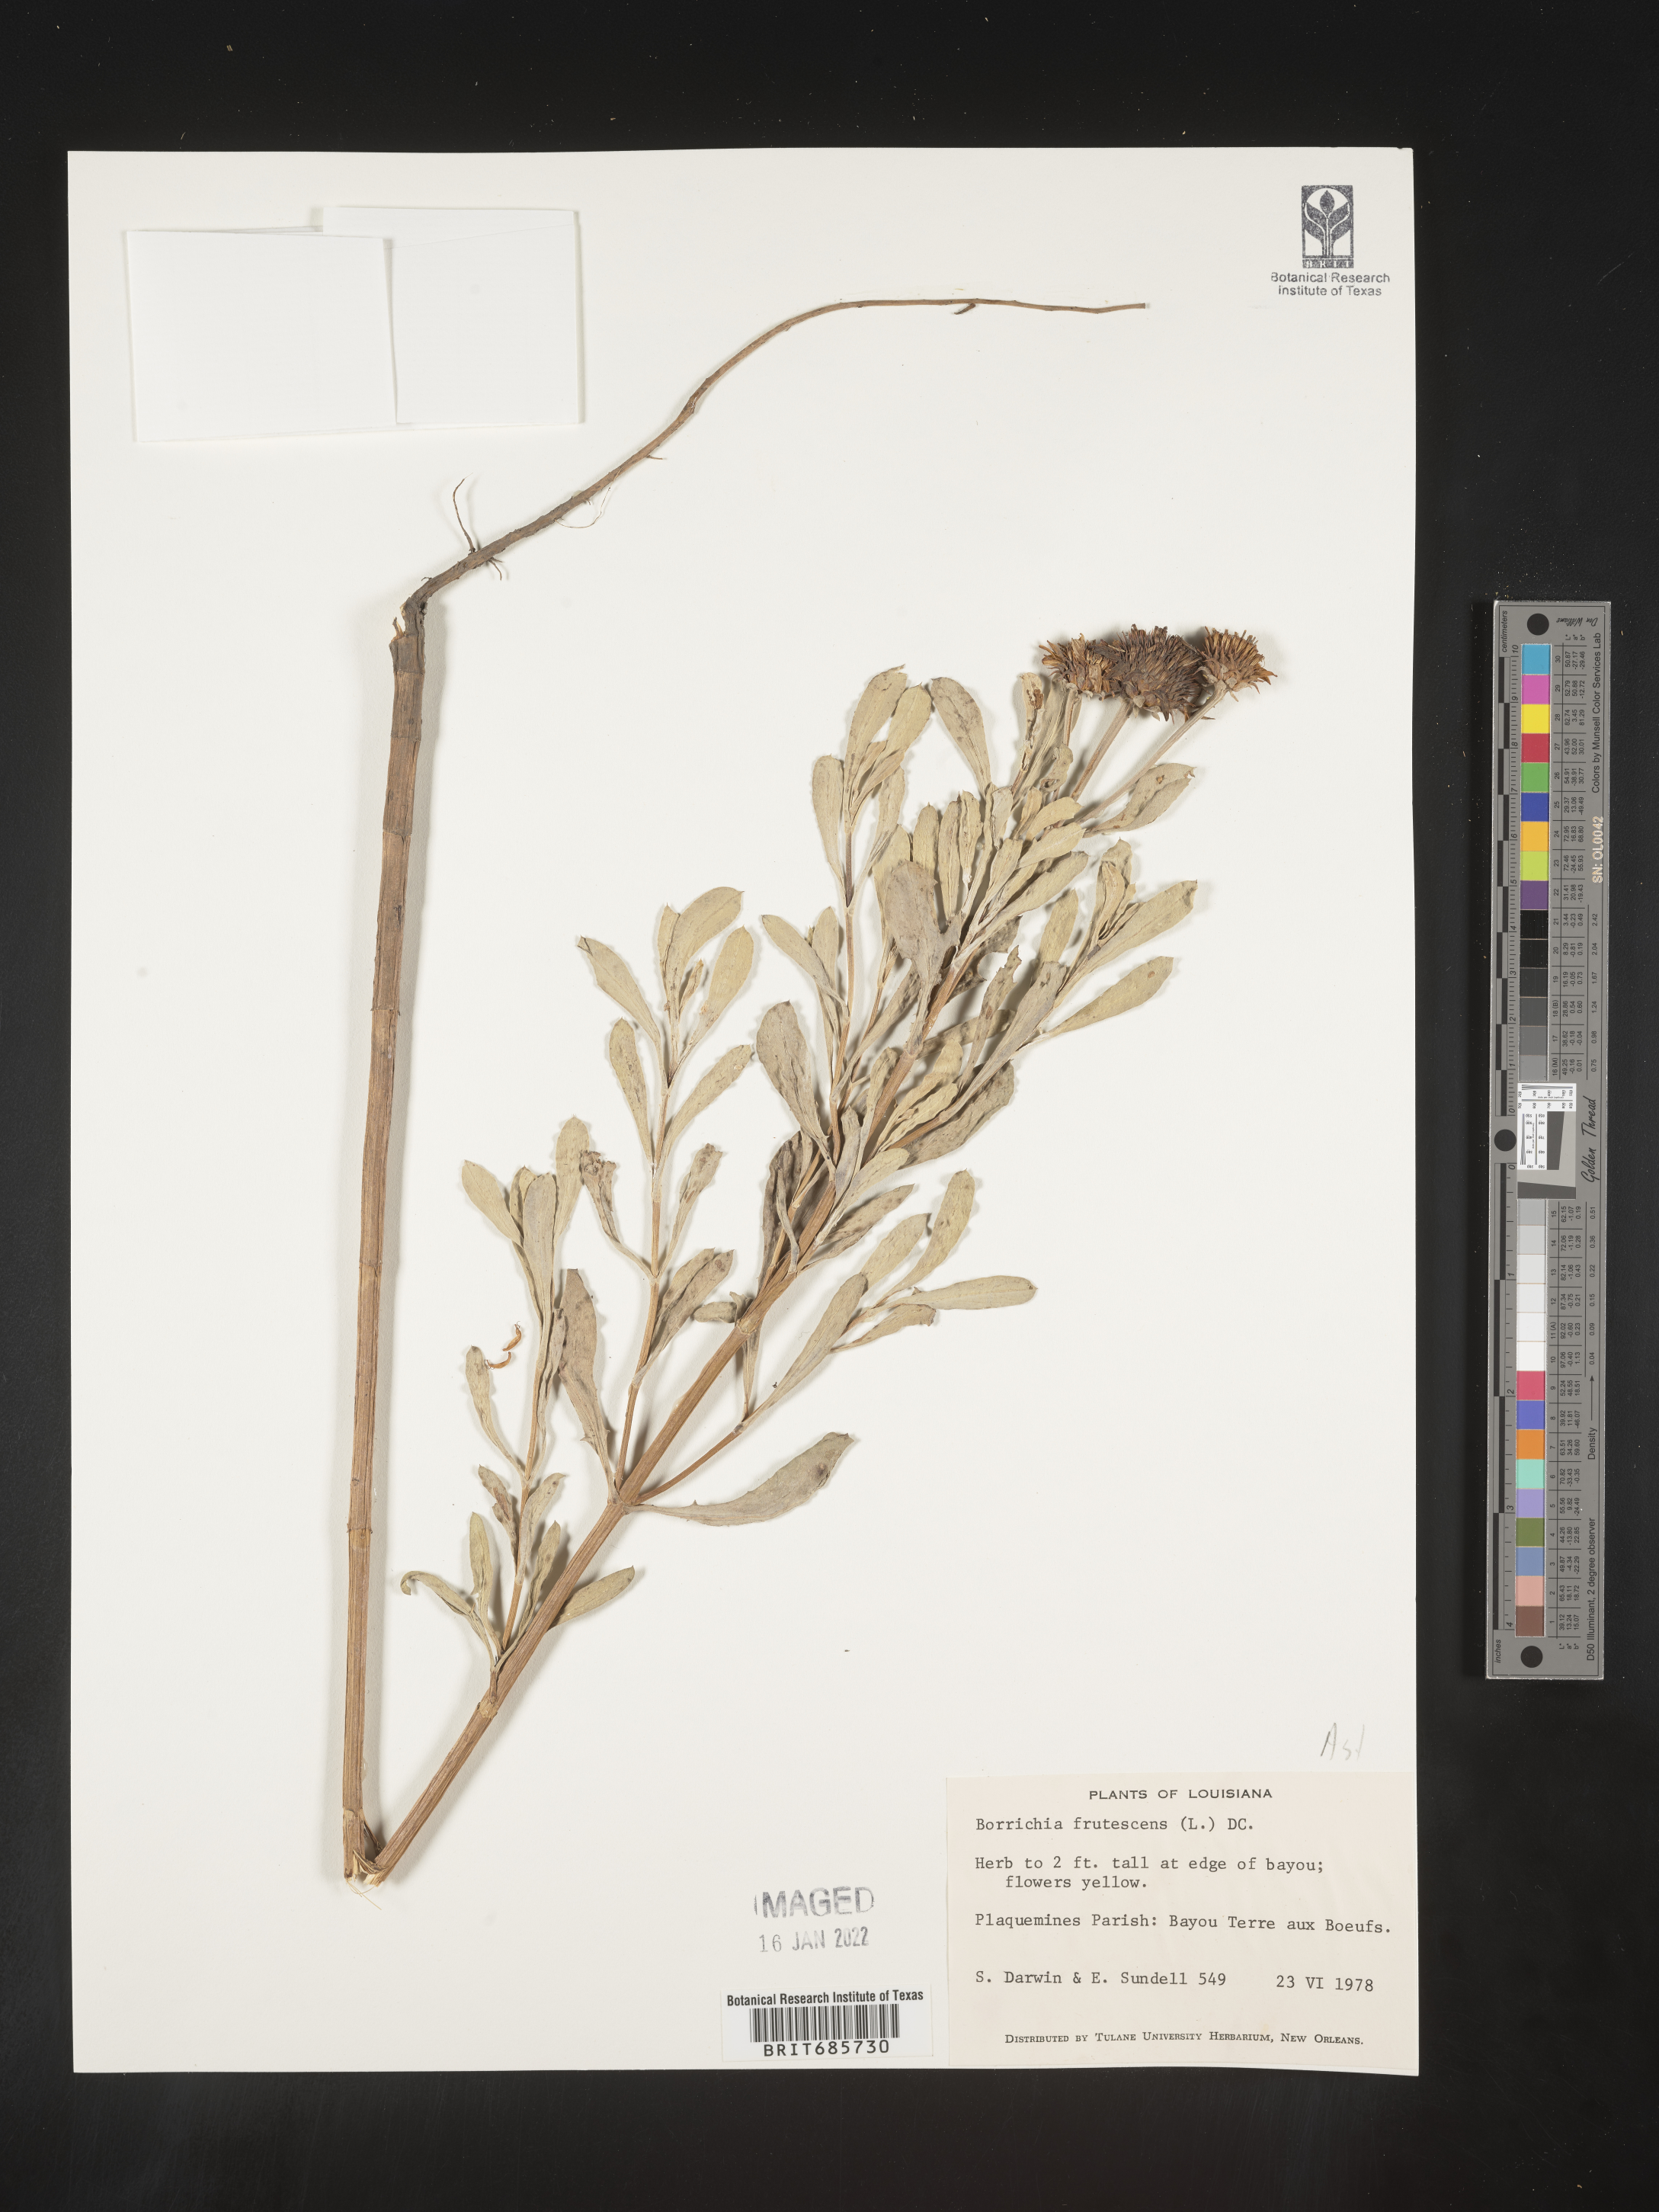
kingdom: Plantae
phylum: Tracheophyta
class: Magnoliopsida
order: Asterales
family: Asteraceae
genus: Borrichia
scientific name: Borrichia frutescens
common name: Sea oxeye
